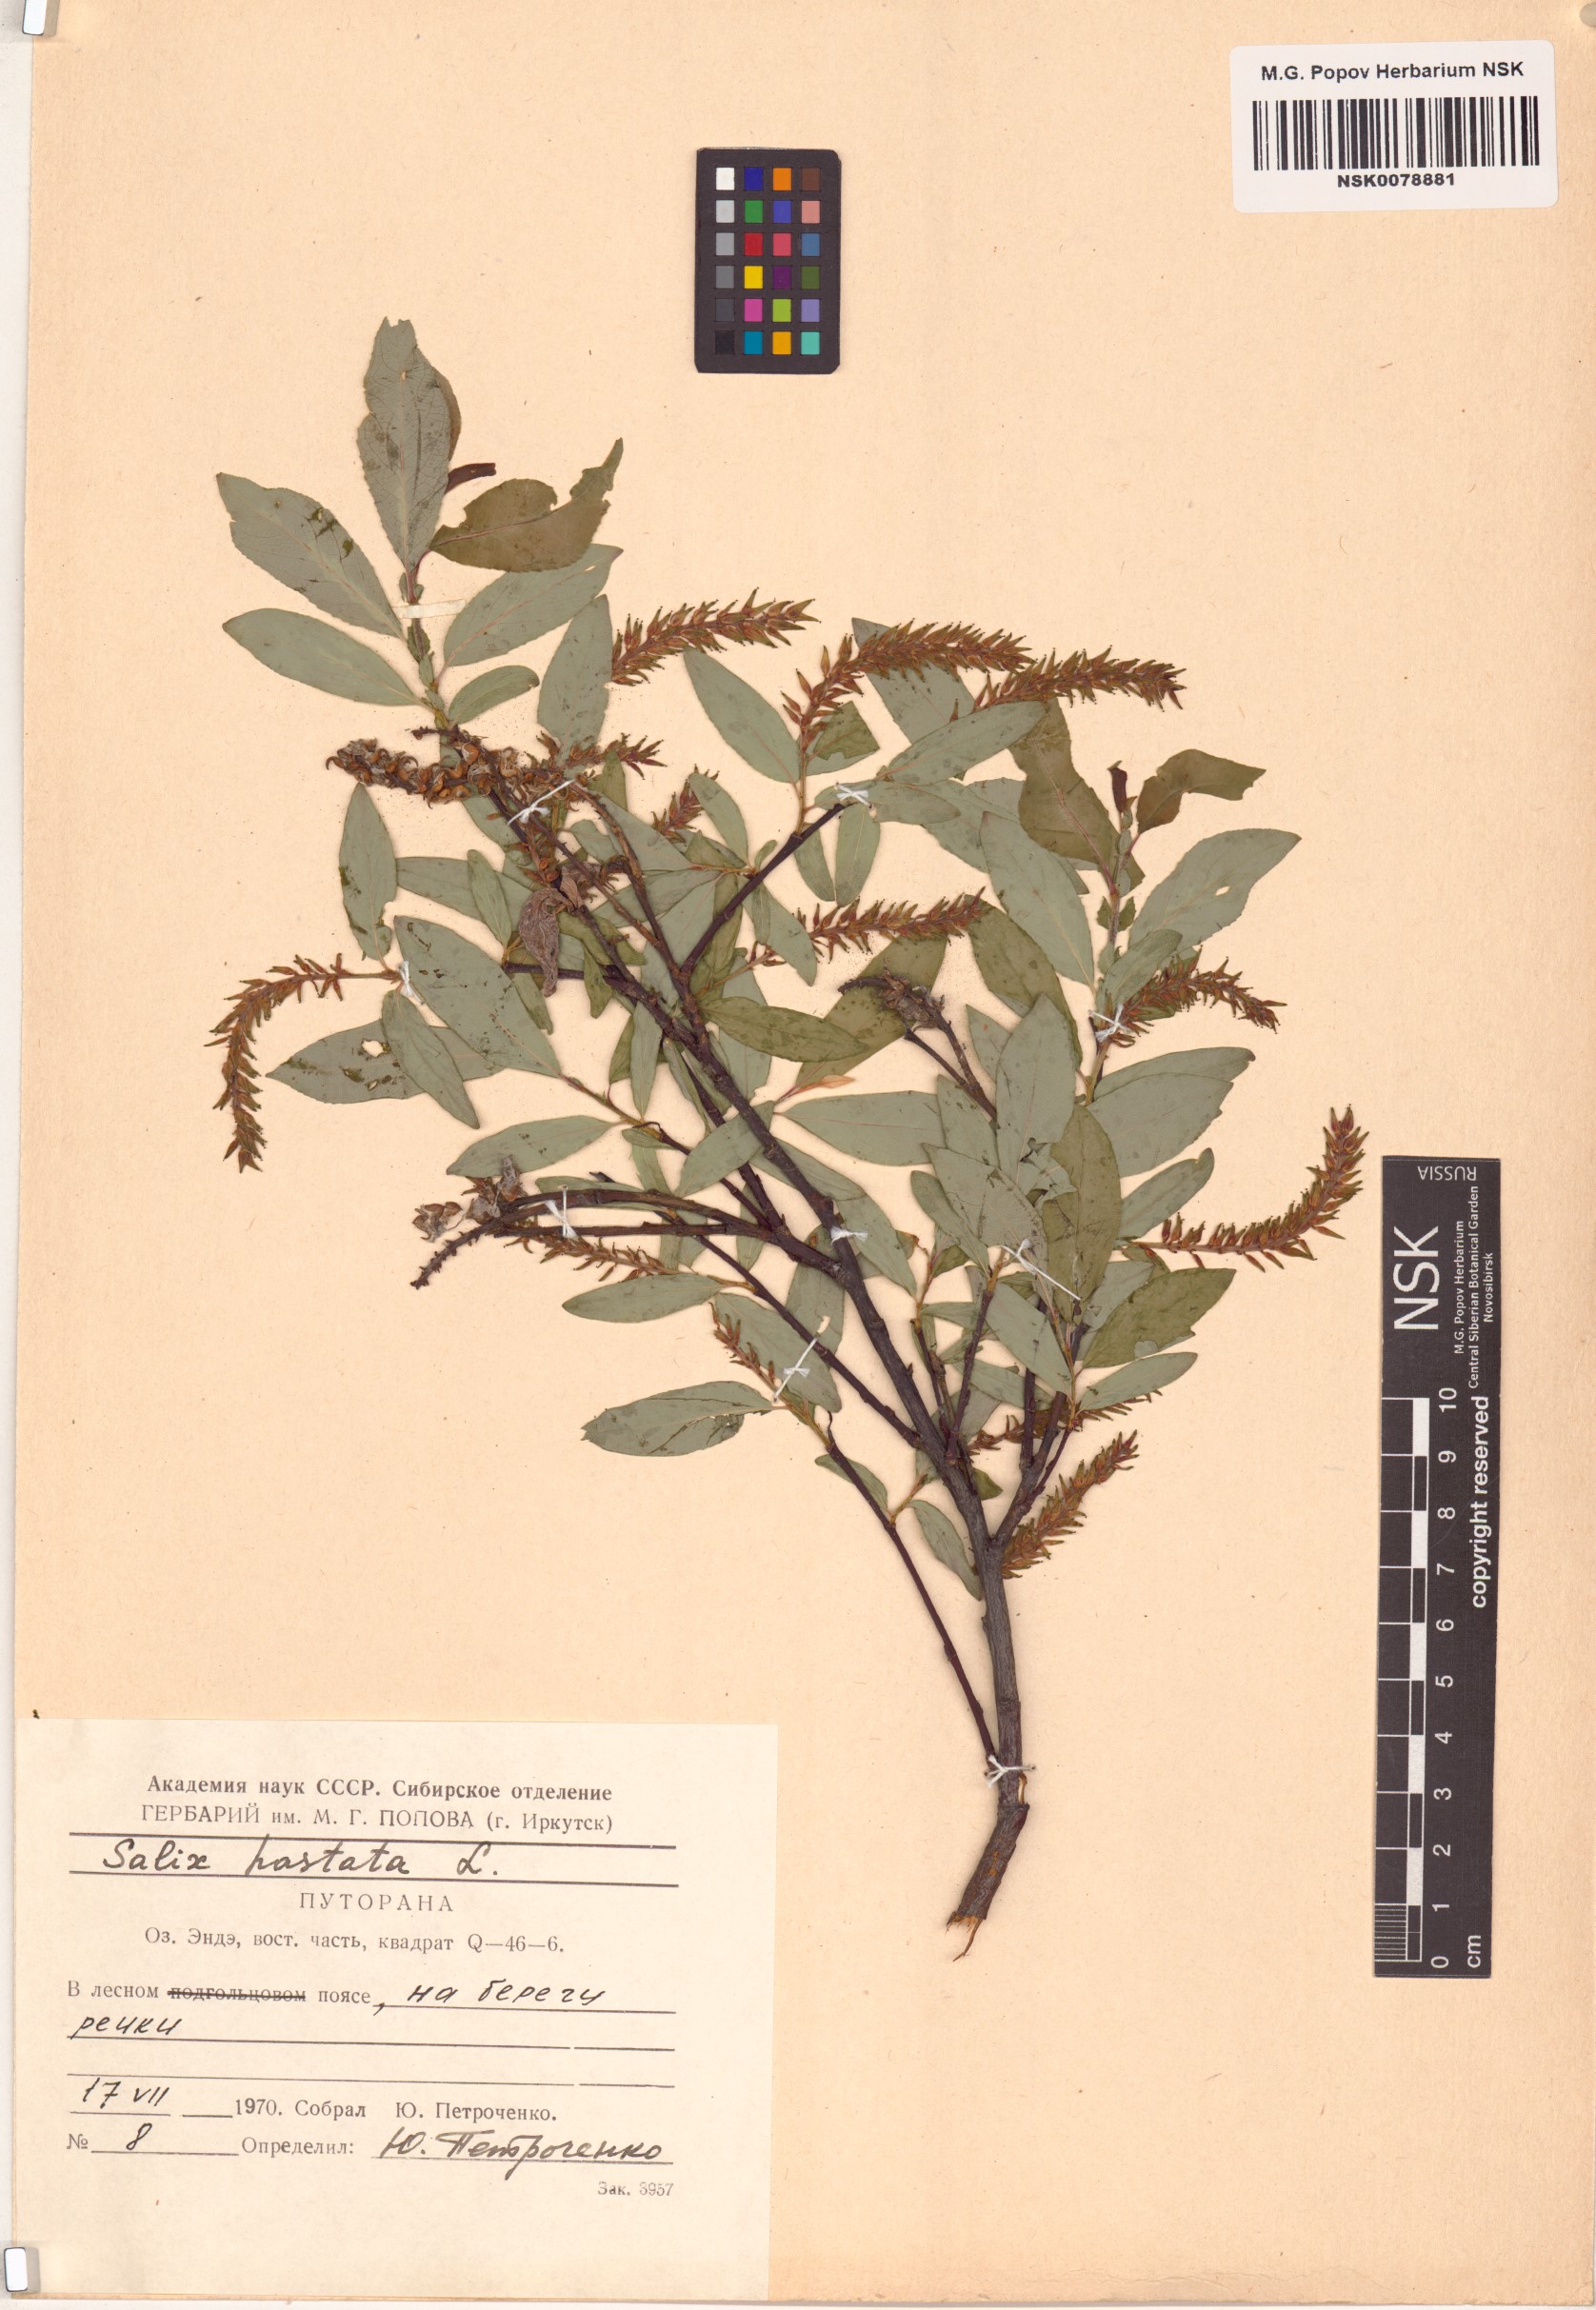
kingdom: Plantae
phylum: Tracheophyta
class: Magnoliopsida
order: Malpighiales
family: Salicaceae
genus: Salix
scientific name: Salix hastata
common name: Halberd willow
